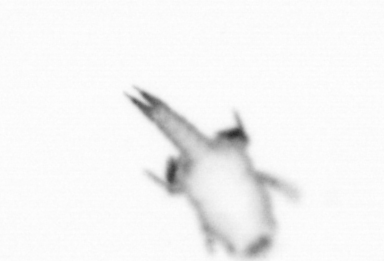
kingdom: Animalia
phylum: Annelida
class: Polychaeta
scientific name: Polychaeta
